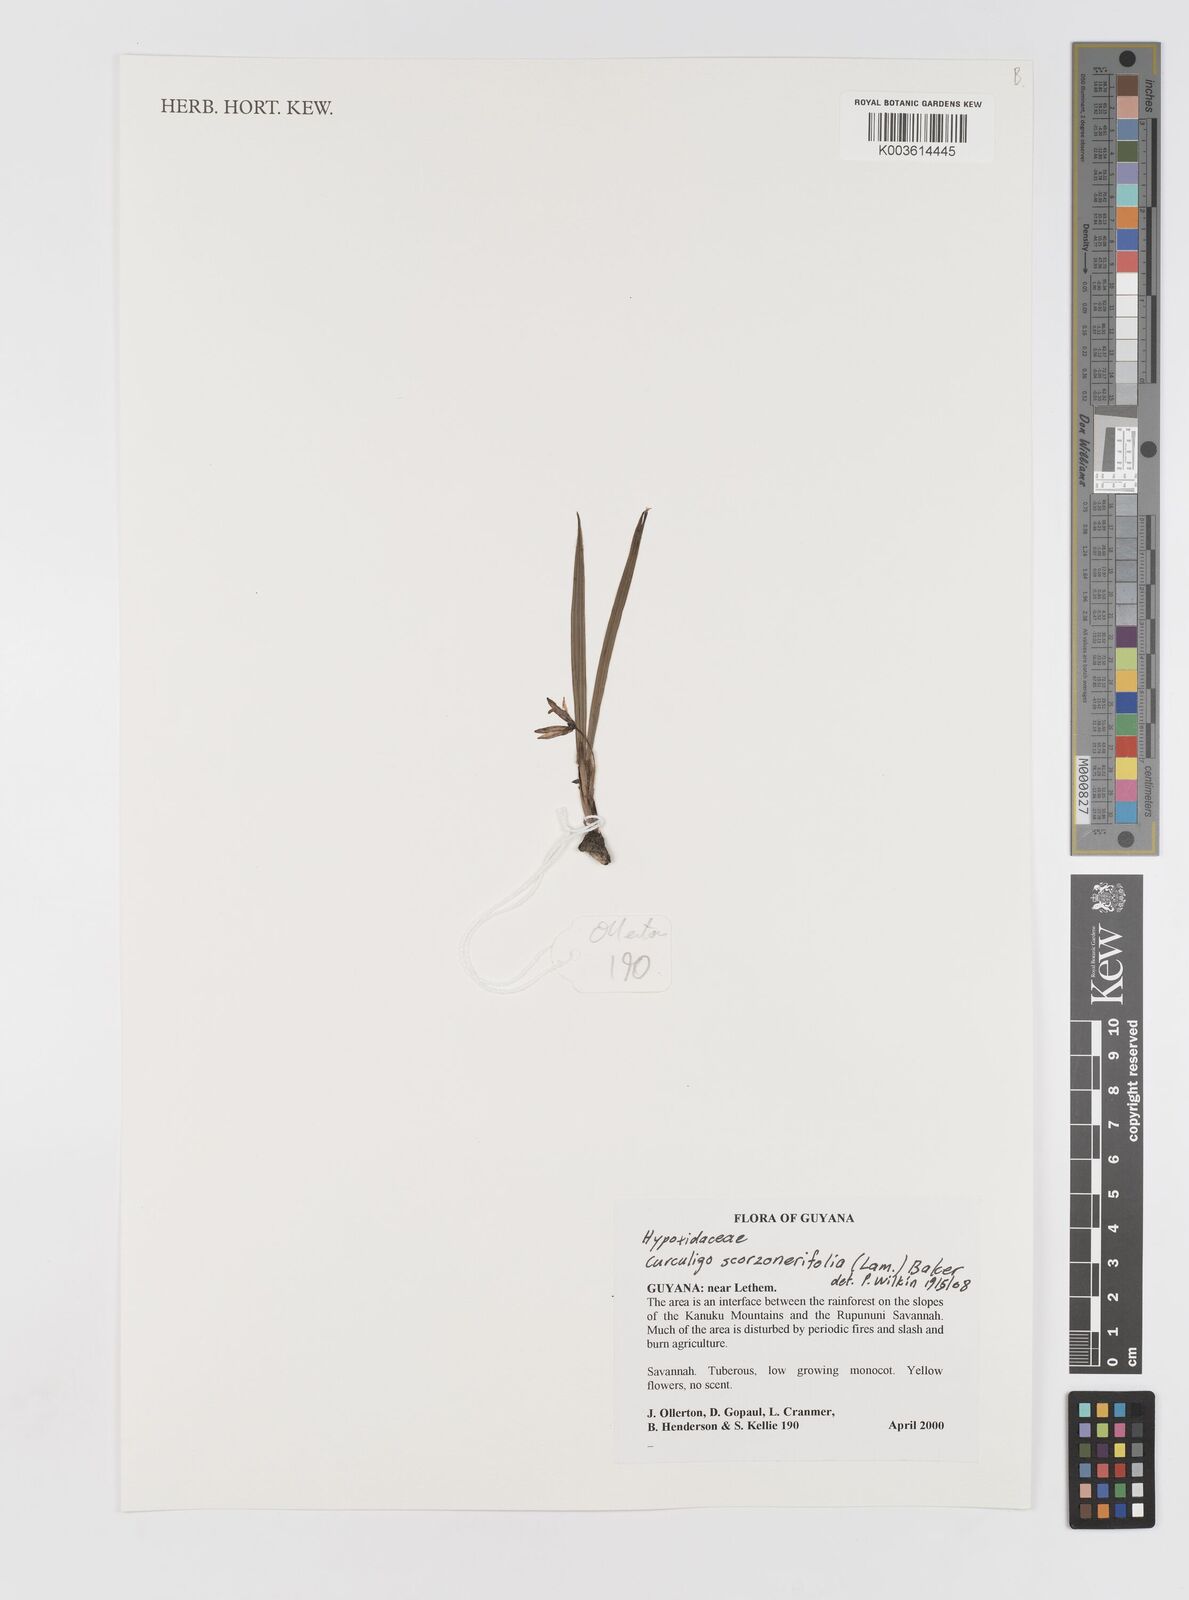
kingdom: Plantae
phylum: Tracheophyta
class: Liliopsida
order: Asparagales
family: Hypoxidaceae
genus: Curculigo
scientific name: Curculigo scorzonerifolia
